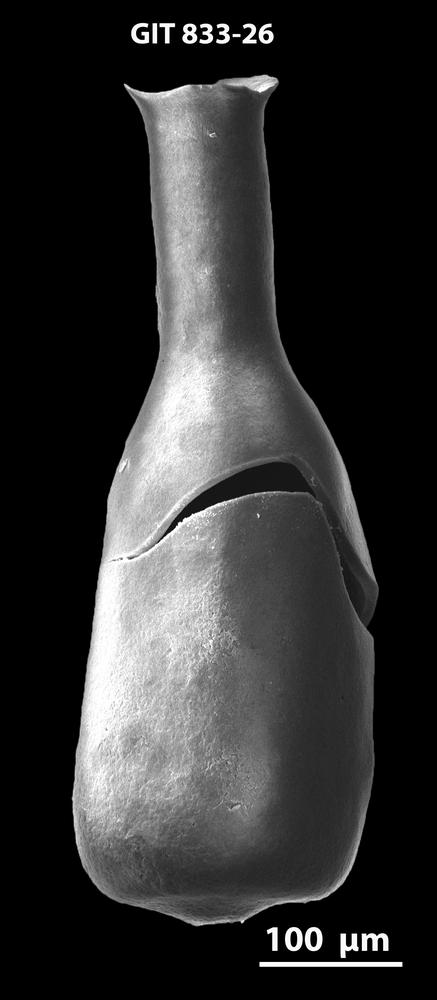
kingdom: Animalia
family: Lagenochitinidae
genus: Lagenochitina
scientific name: Lagenochitina
